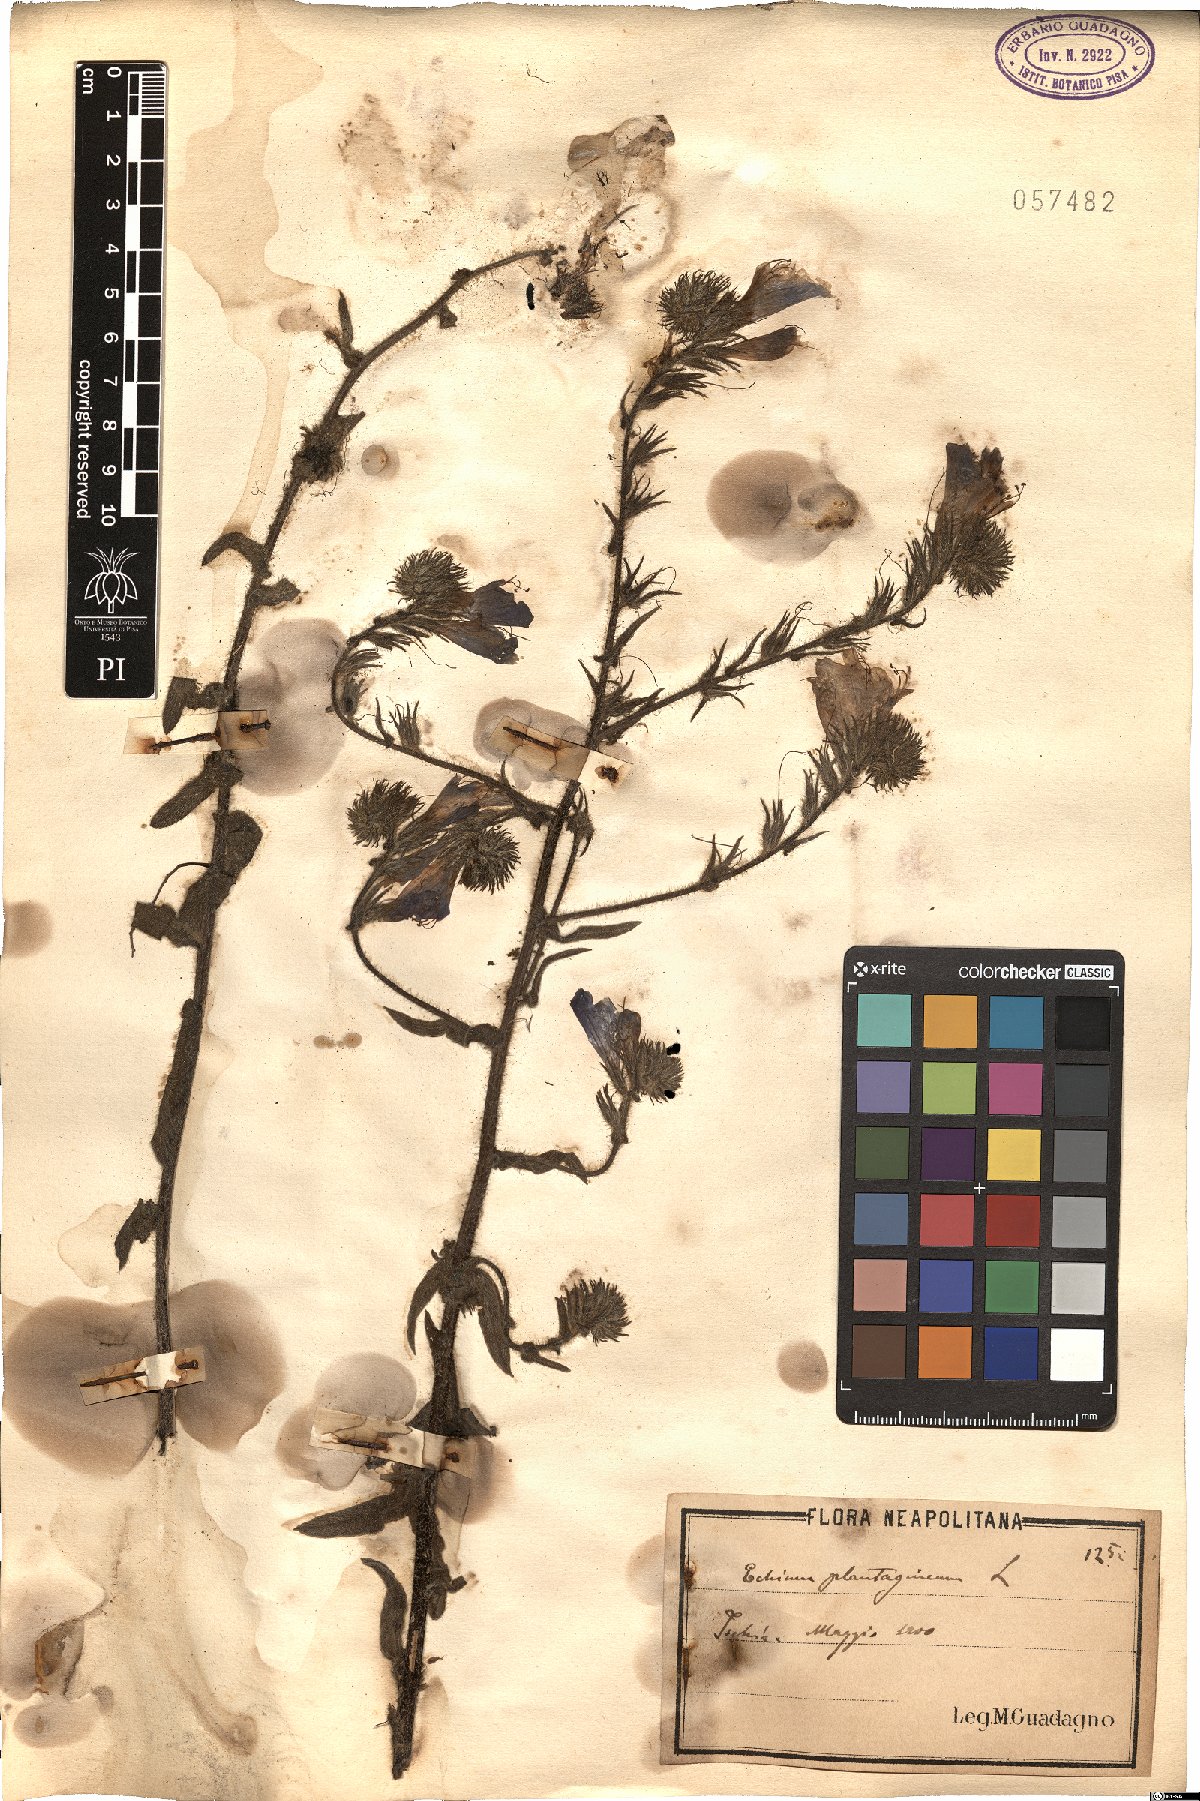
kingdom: Plantae
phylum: Tracheophyta
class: Magnoliopsida
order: Boraginales
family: Boraginaceae
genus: Echium
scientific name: Echium plantagineum
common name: Purple viper's-bugloss
